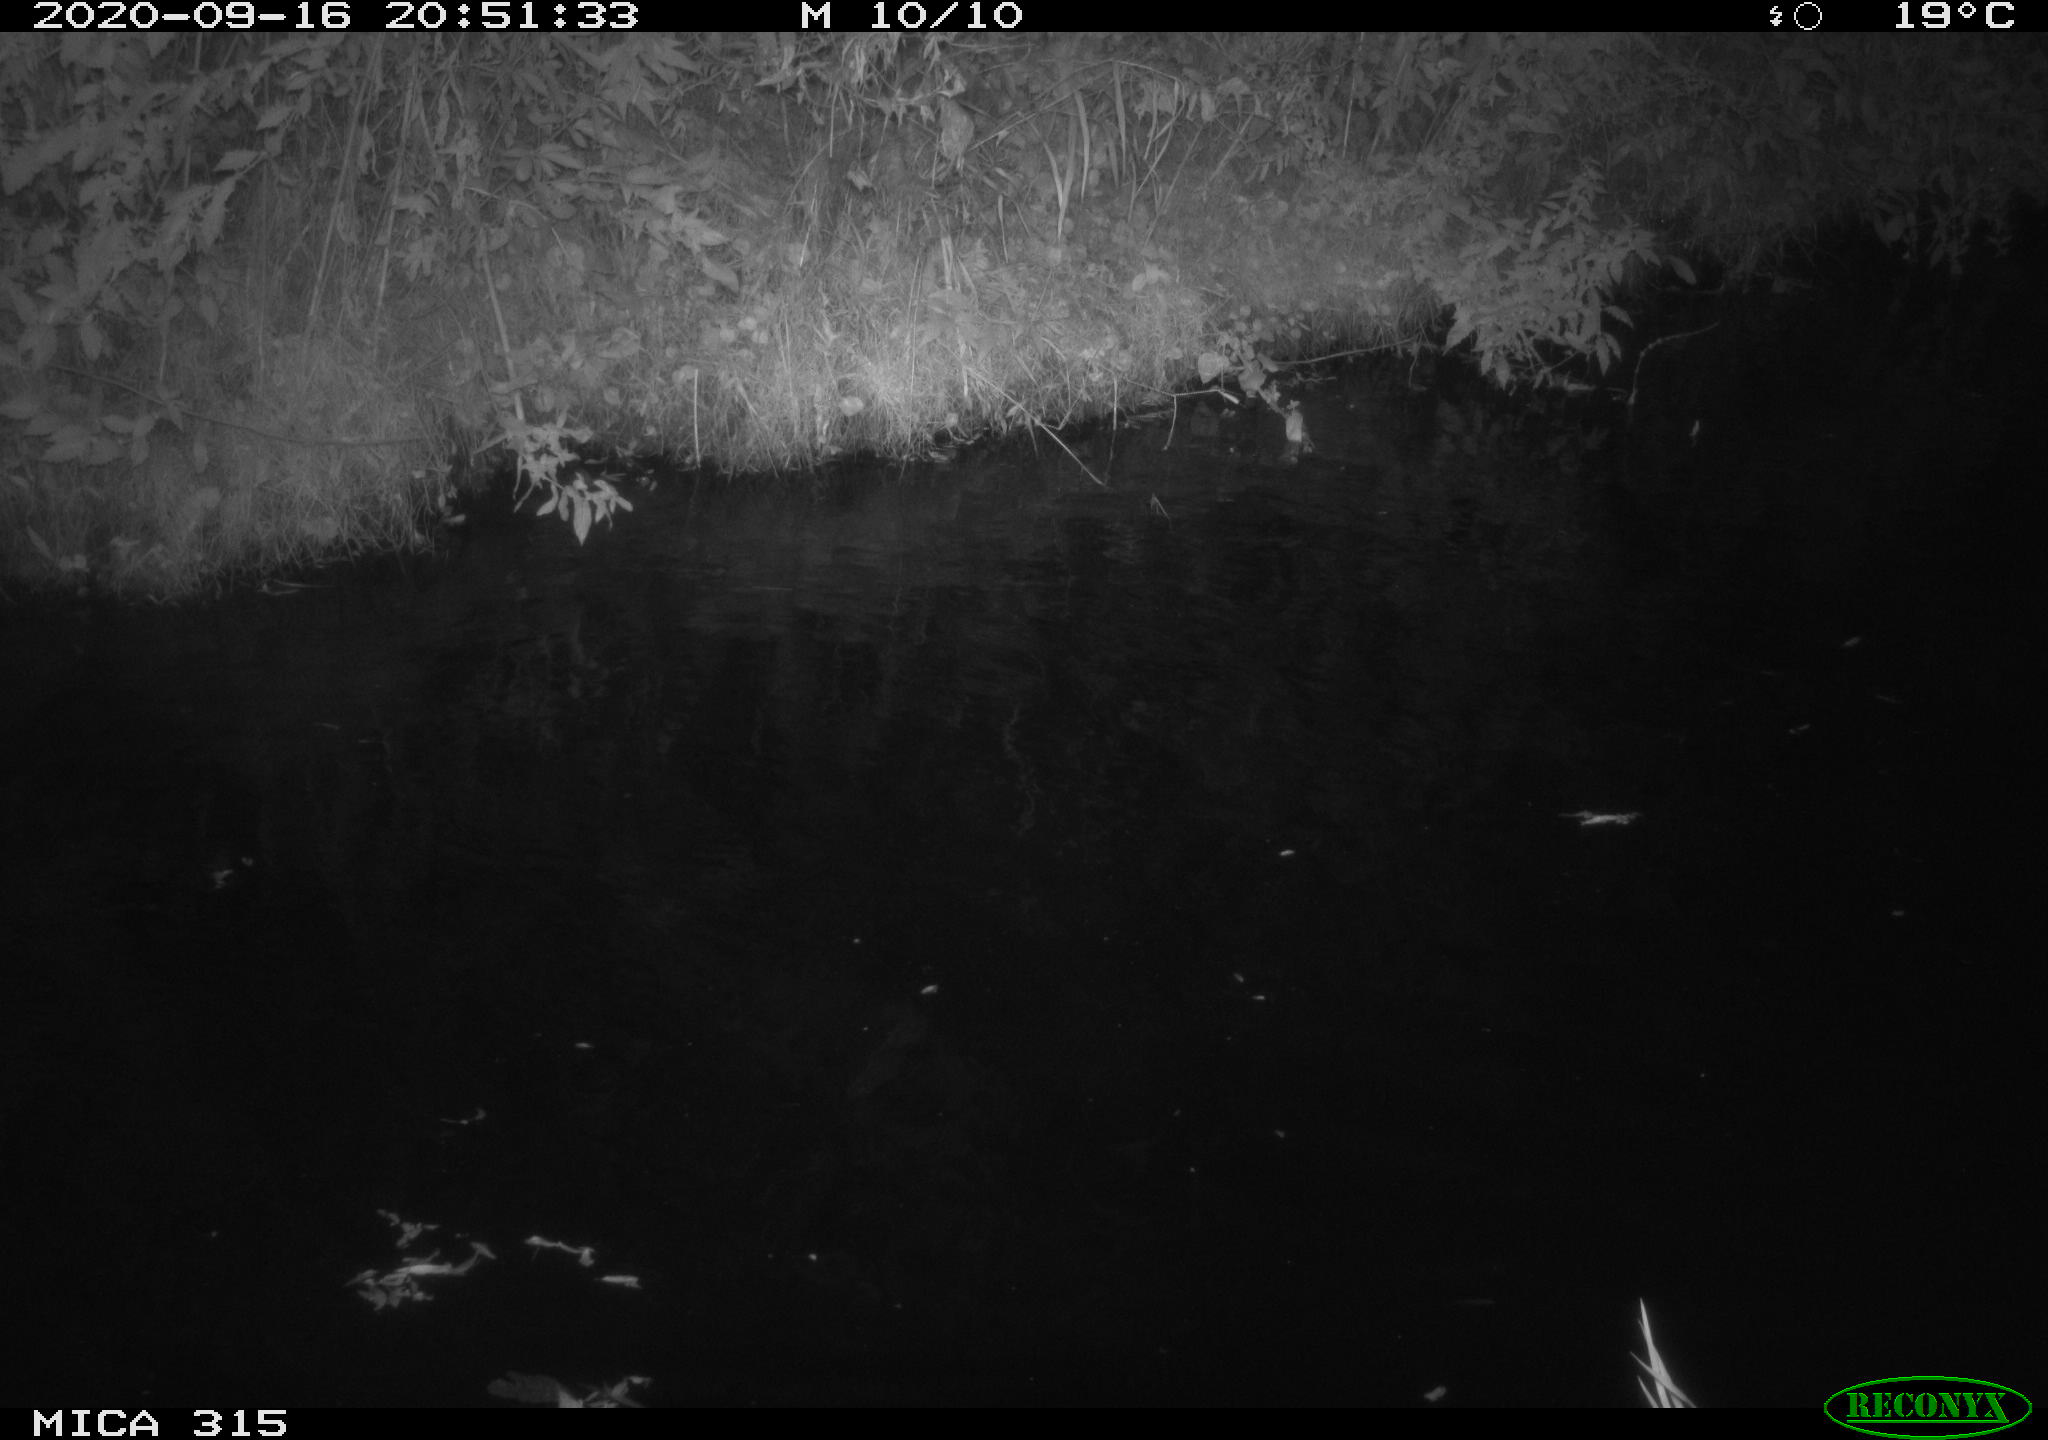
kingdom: Animalia
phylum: Chordata
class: Aves
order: Anseriformes
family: Anatidae
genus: Anas
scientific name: Anas platyrhynchos
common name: Mallard
